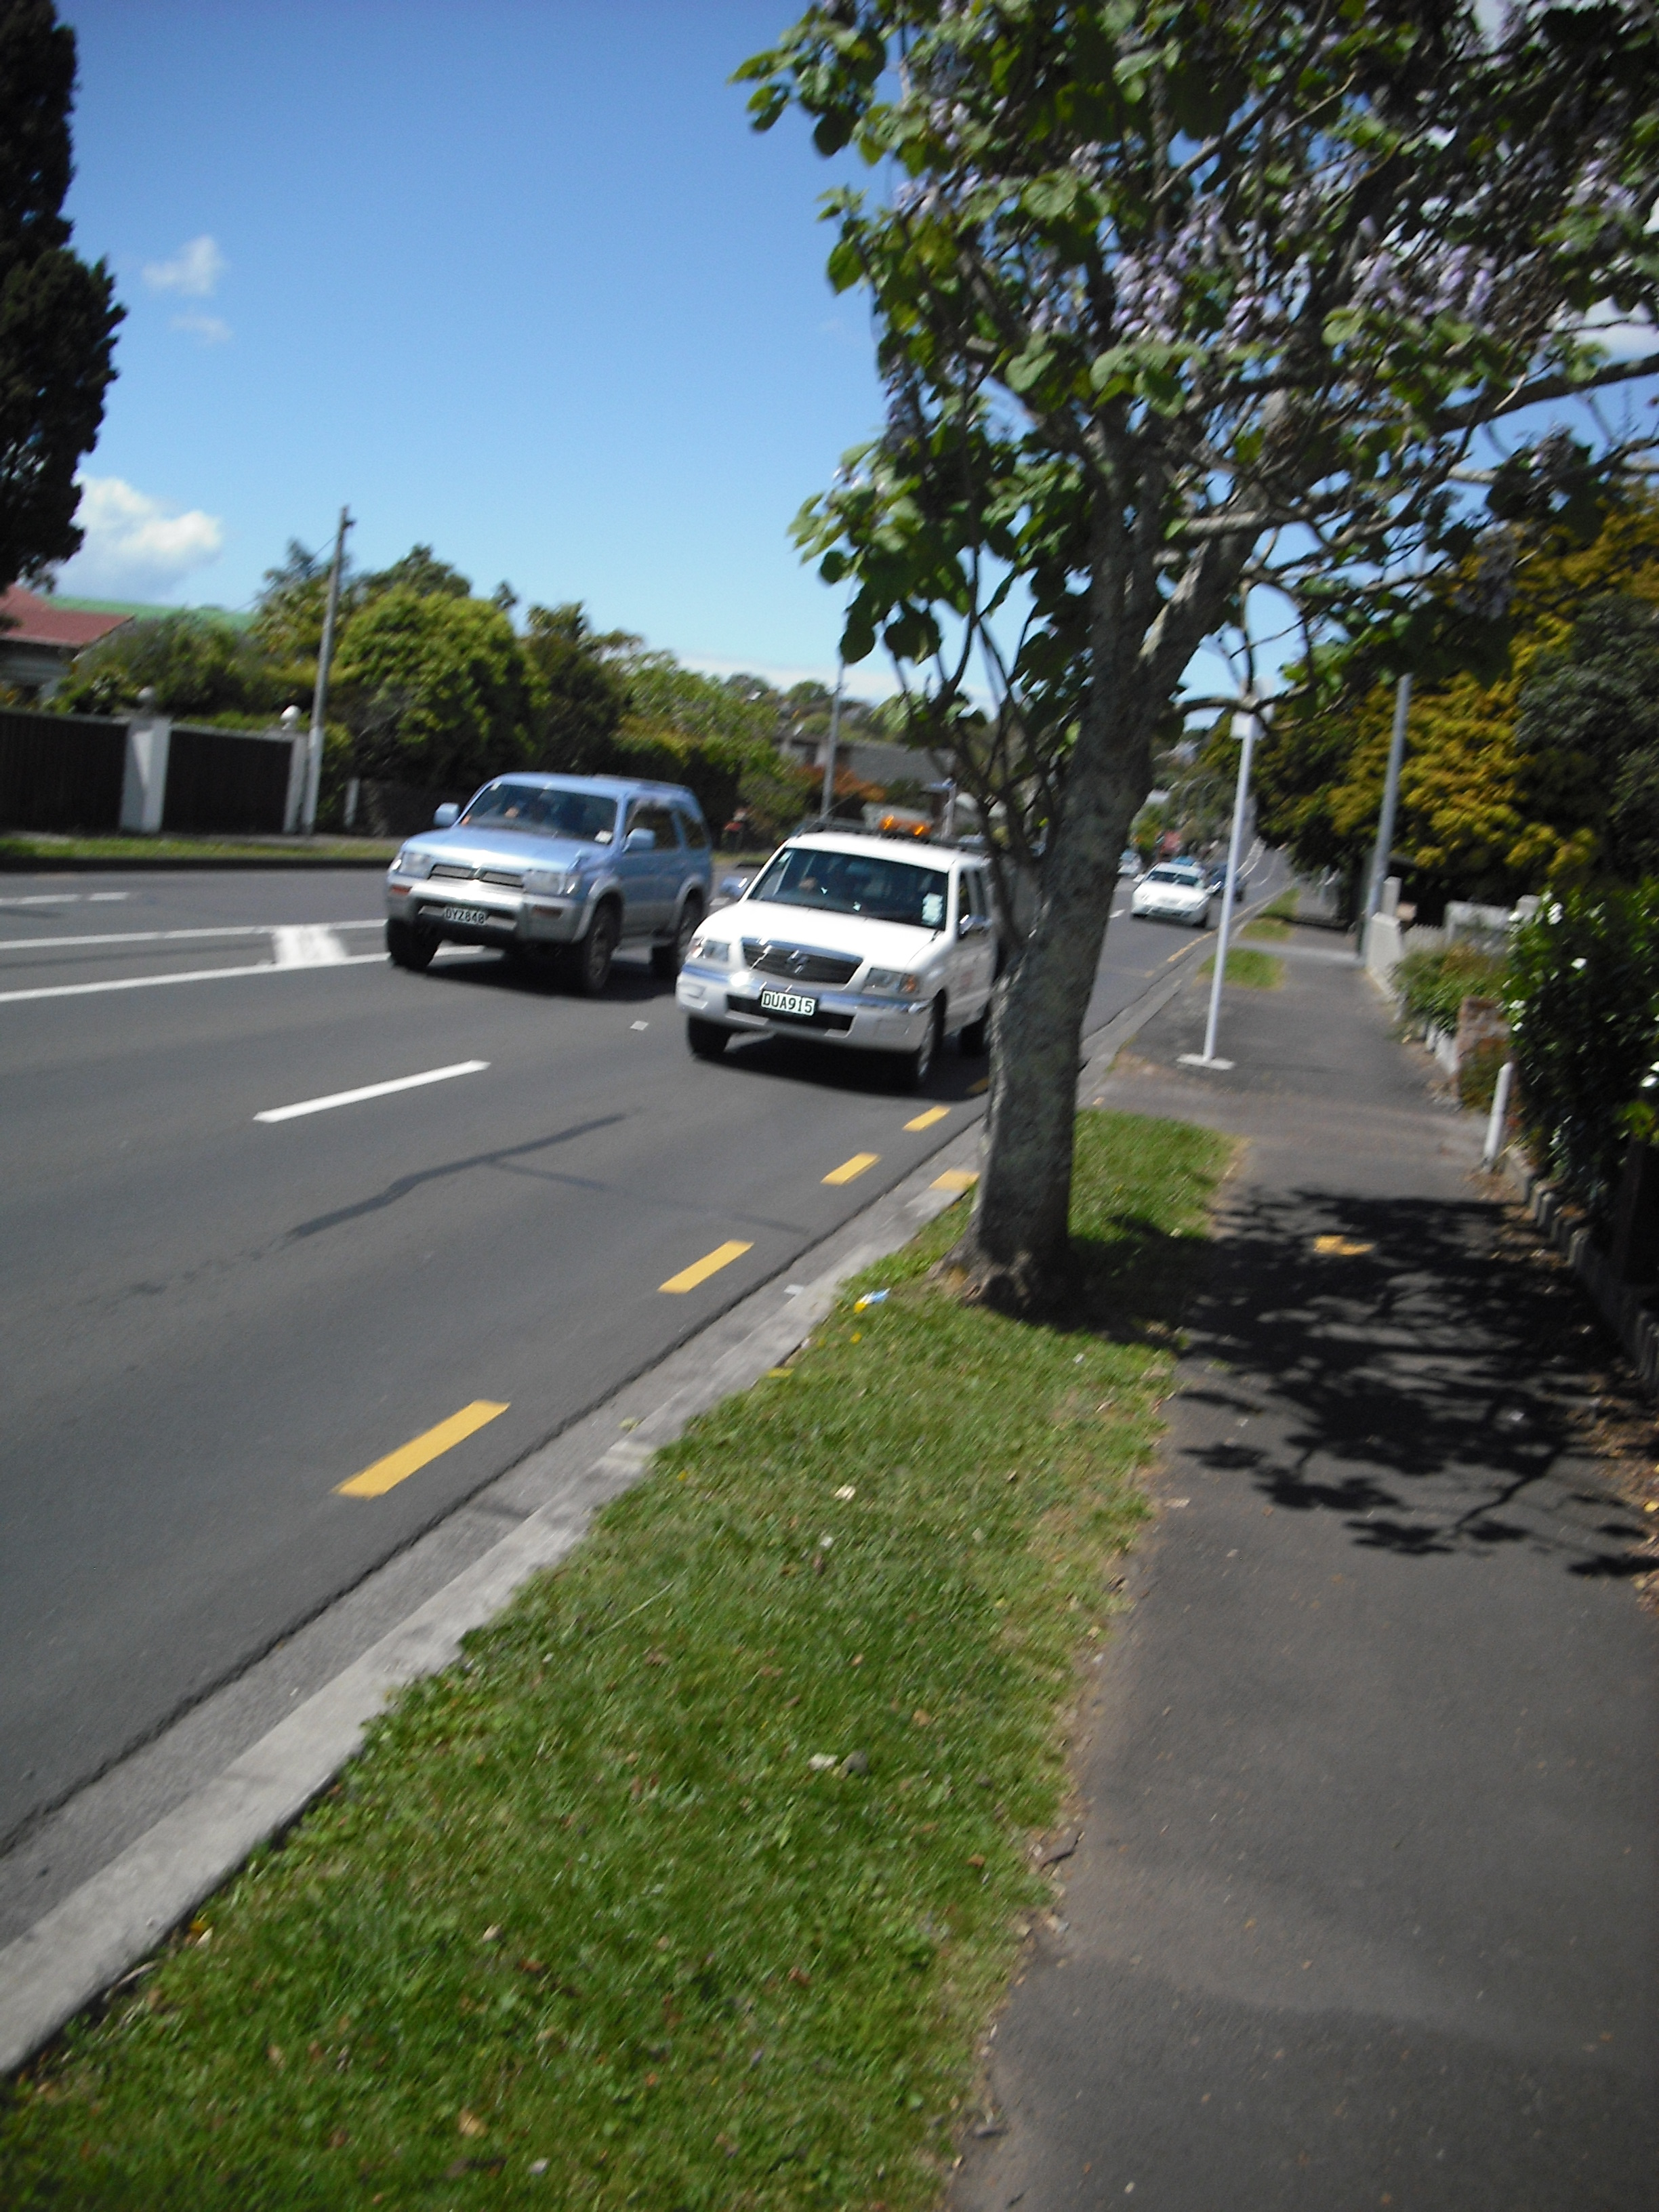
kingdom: Plantae
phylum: Tracheophyta
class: Magnoliopsida
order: Lamiales
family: Paulowniaceae
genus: Paulownia
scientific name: Paulownia elongata
